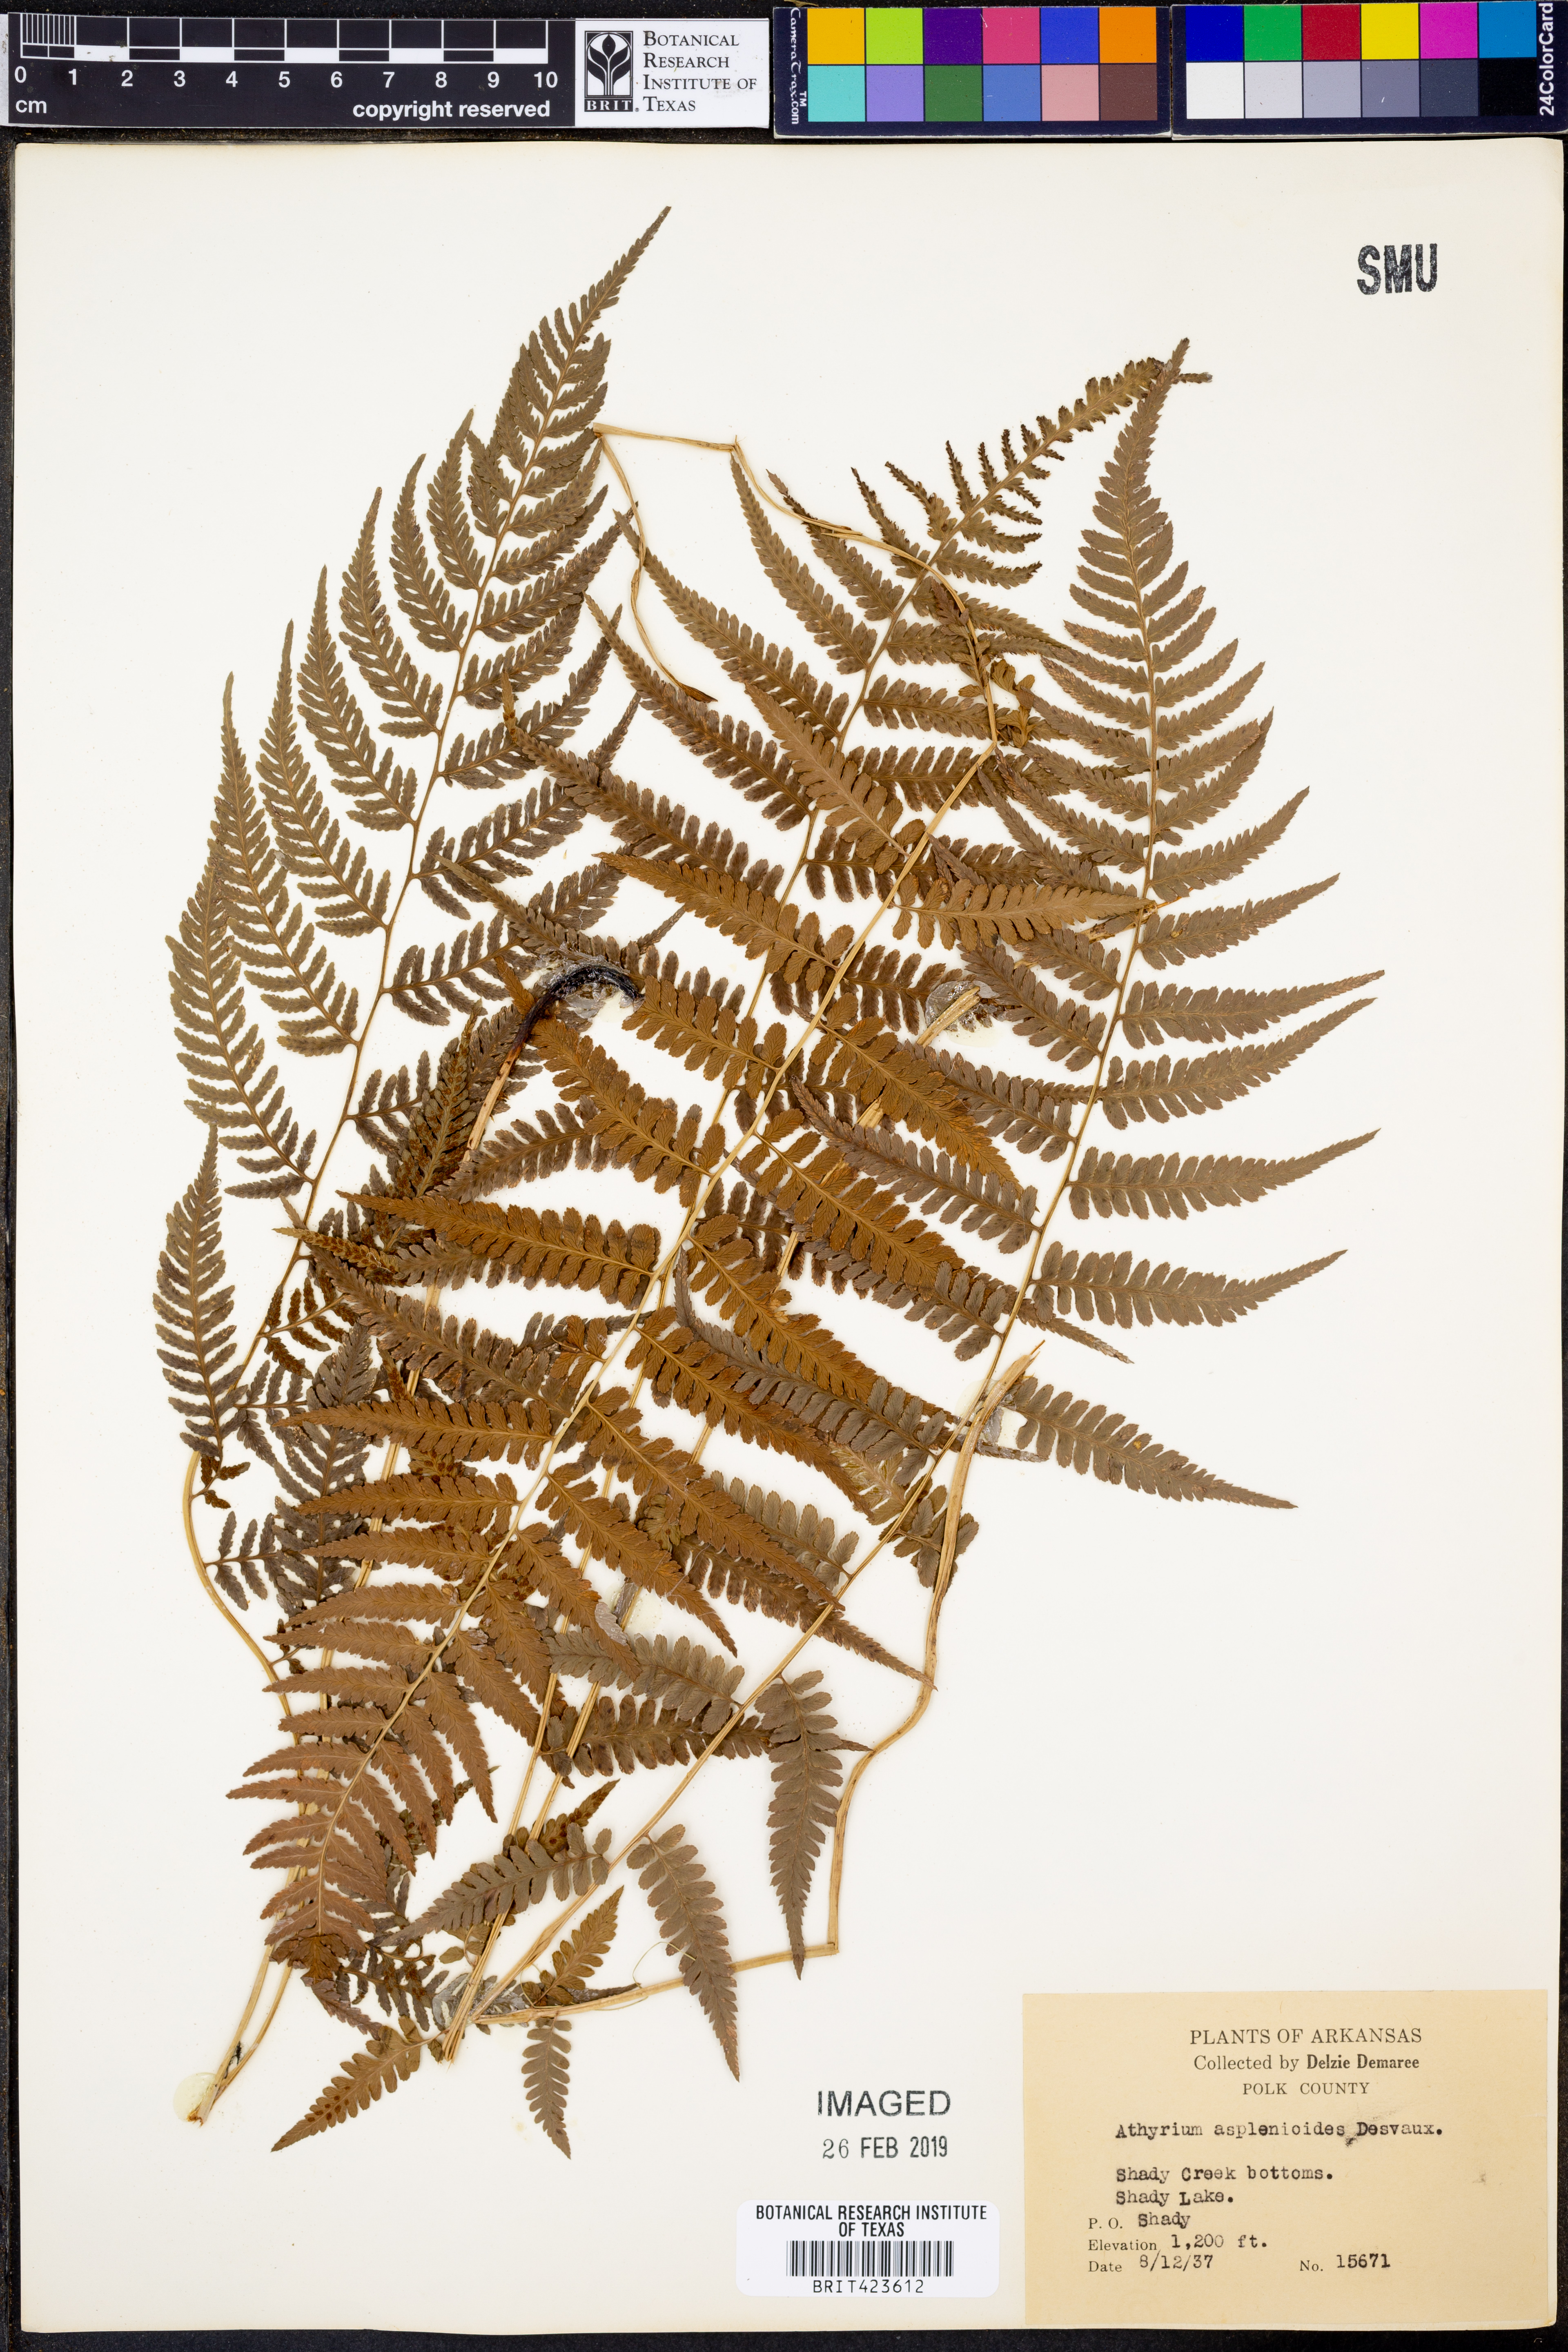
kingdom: Plantae
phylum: Tracheophyta
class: Polypodiopsida
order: Polypodiales
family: Athyriaceae
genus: Athyrium
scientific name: Athyrium asplenioides
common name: Southern lady fern
